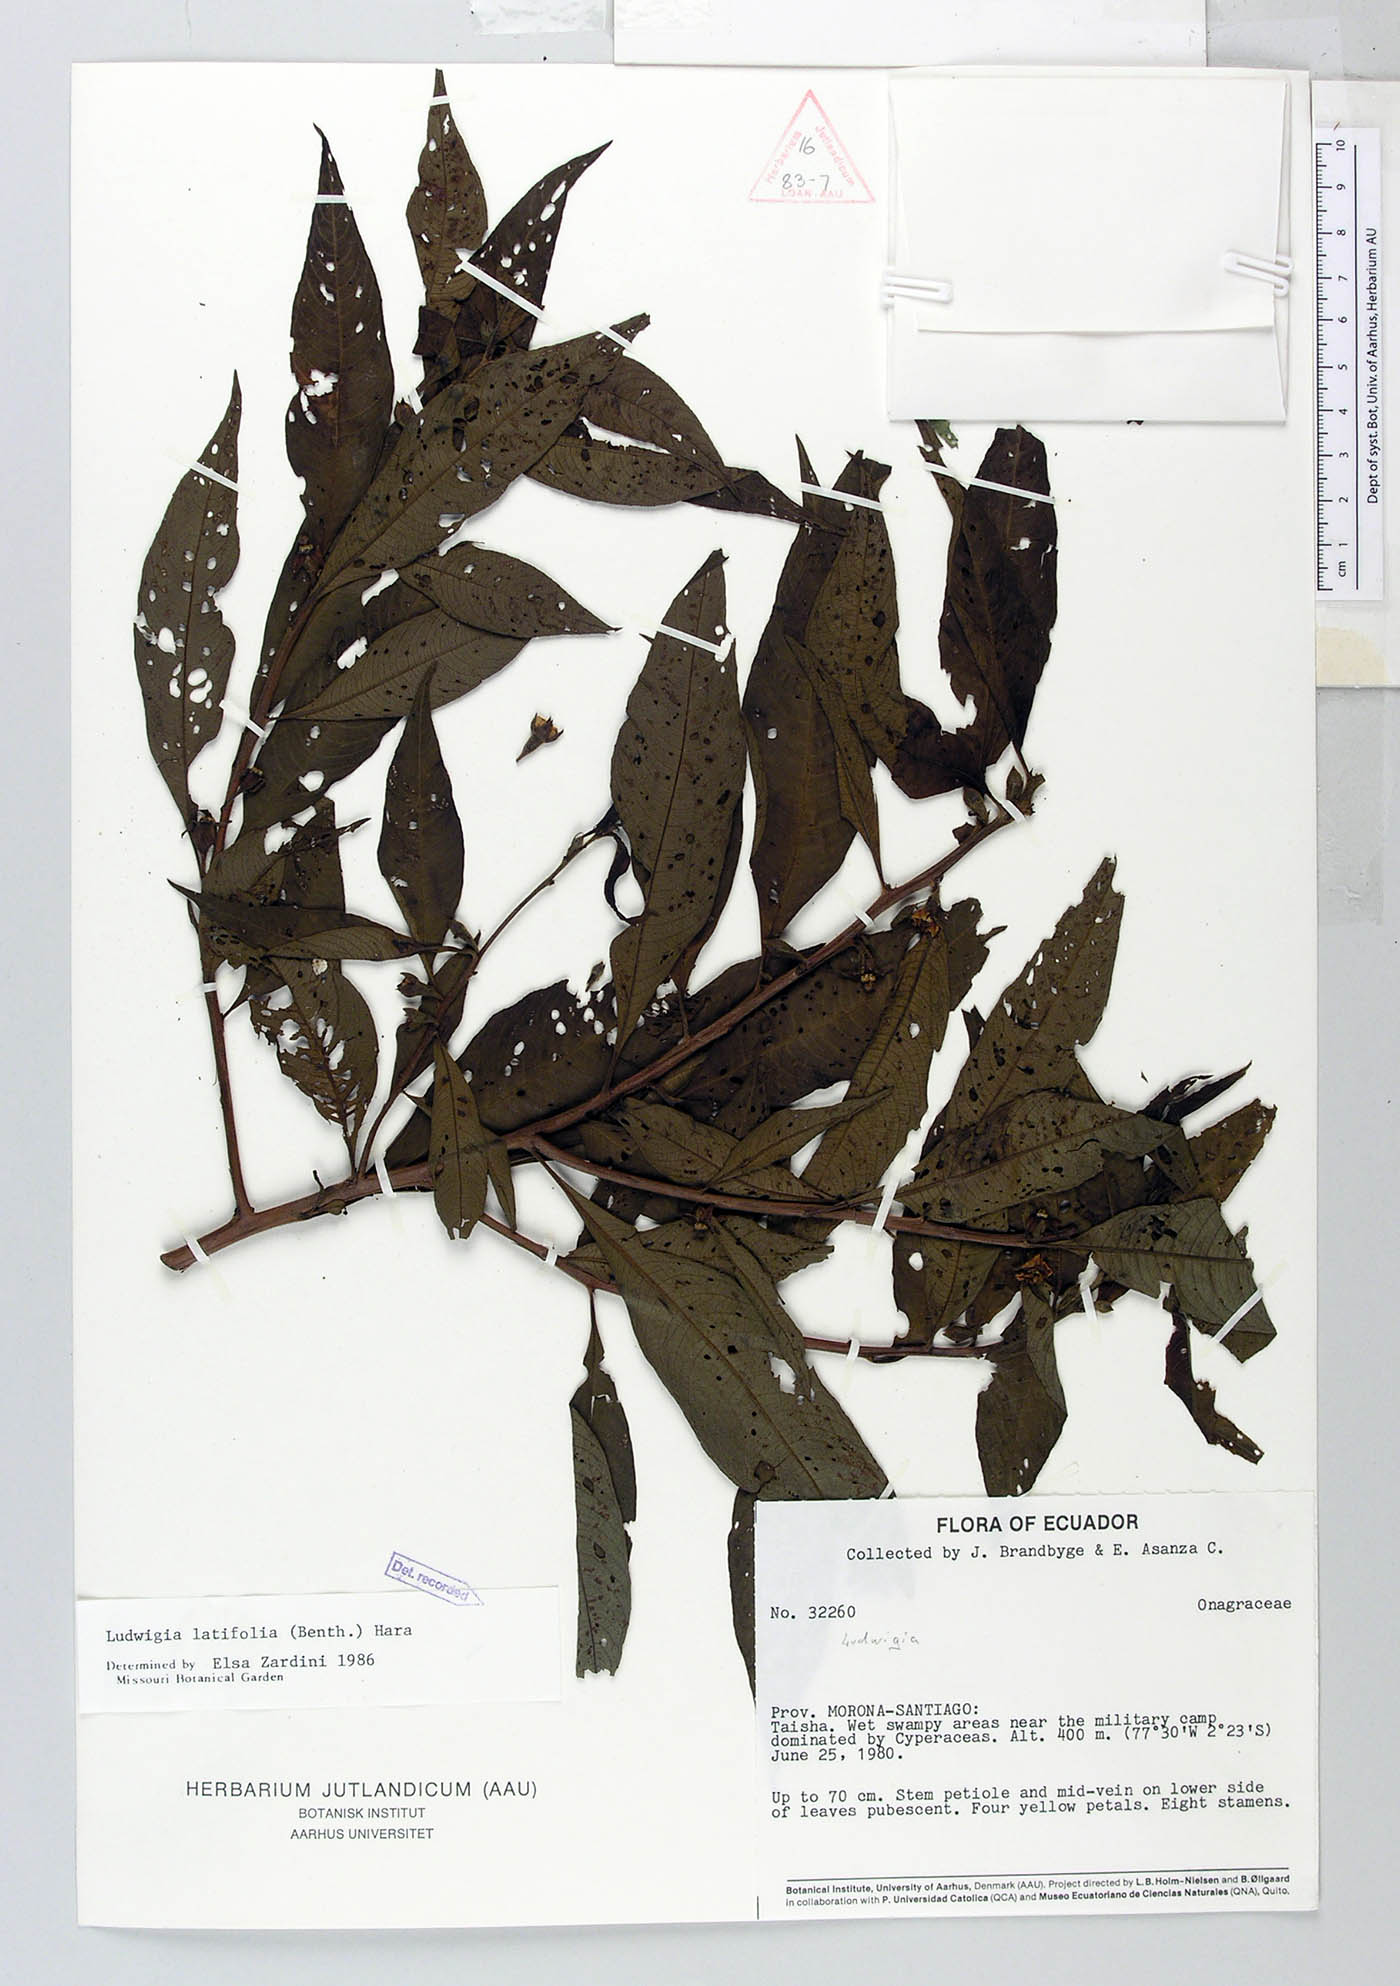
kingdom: Plantae
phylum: Tracheophyta
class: Magnoliopsida
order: Myrtales
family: Onagraceae
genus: Ludwigia
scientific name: Ludwigia latifolia
